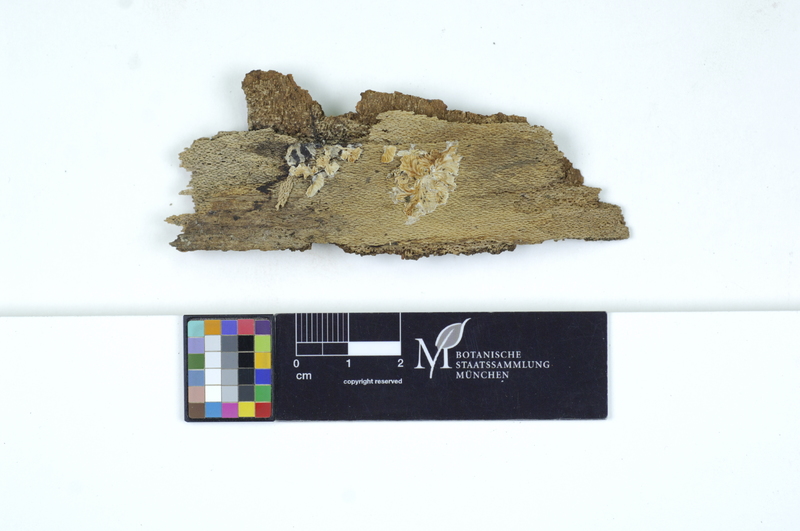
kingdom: Fungi
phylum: Basidiomycota
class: Agaricomycetes
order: Agaricales
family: Crepidotaceae
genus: Crepidotus
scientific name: Crepidotus mollis
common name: Peeling oysterling
